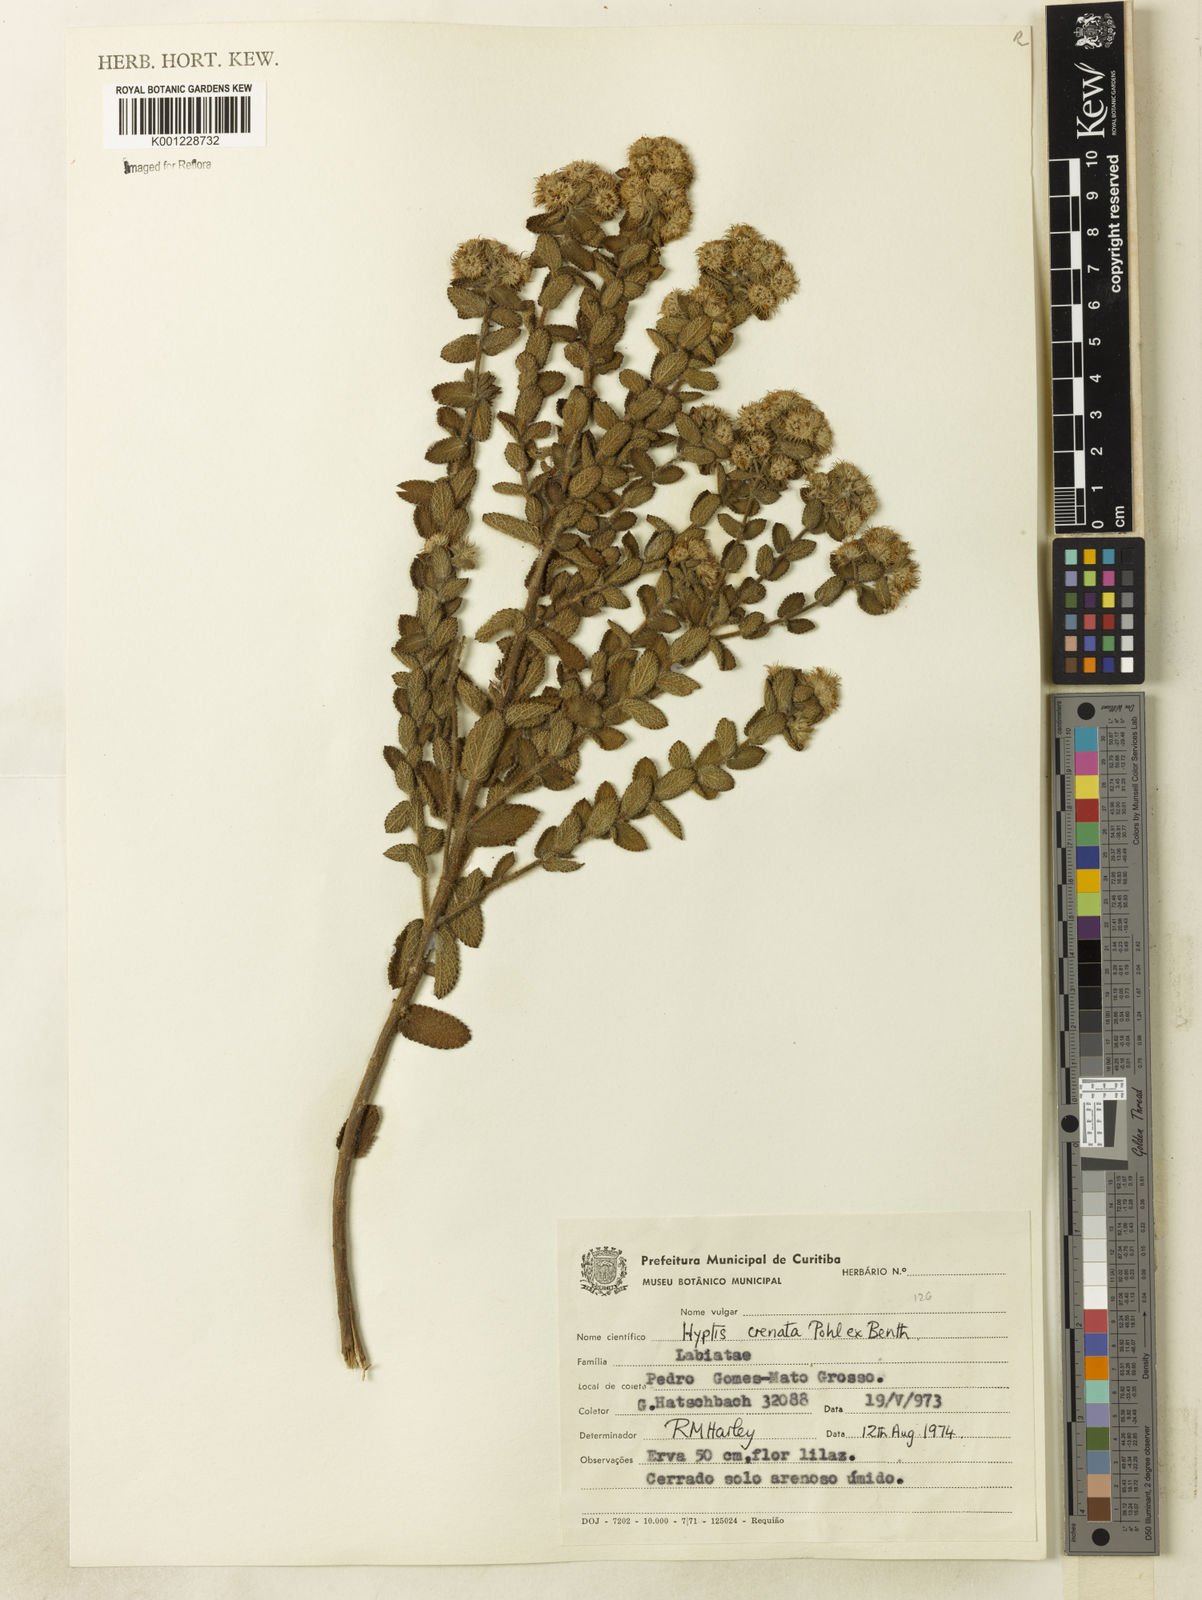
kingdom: Plantae
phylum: Tracheophyta
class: Magnoliopsida
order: Lamiales
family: Lamiaceae
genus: Hyptis
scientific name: Hyptis crenata
